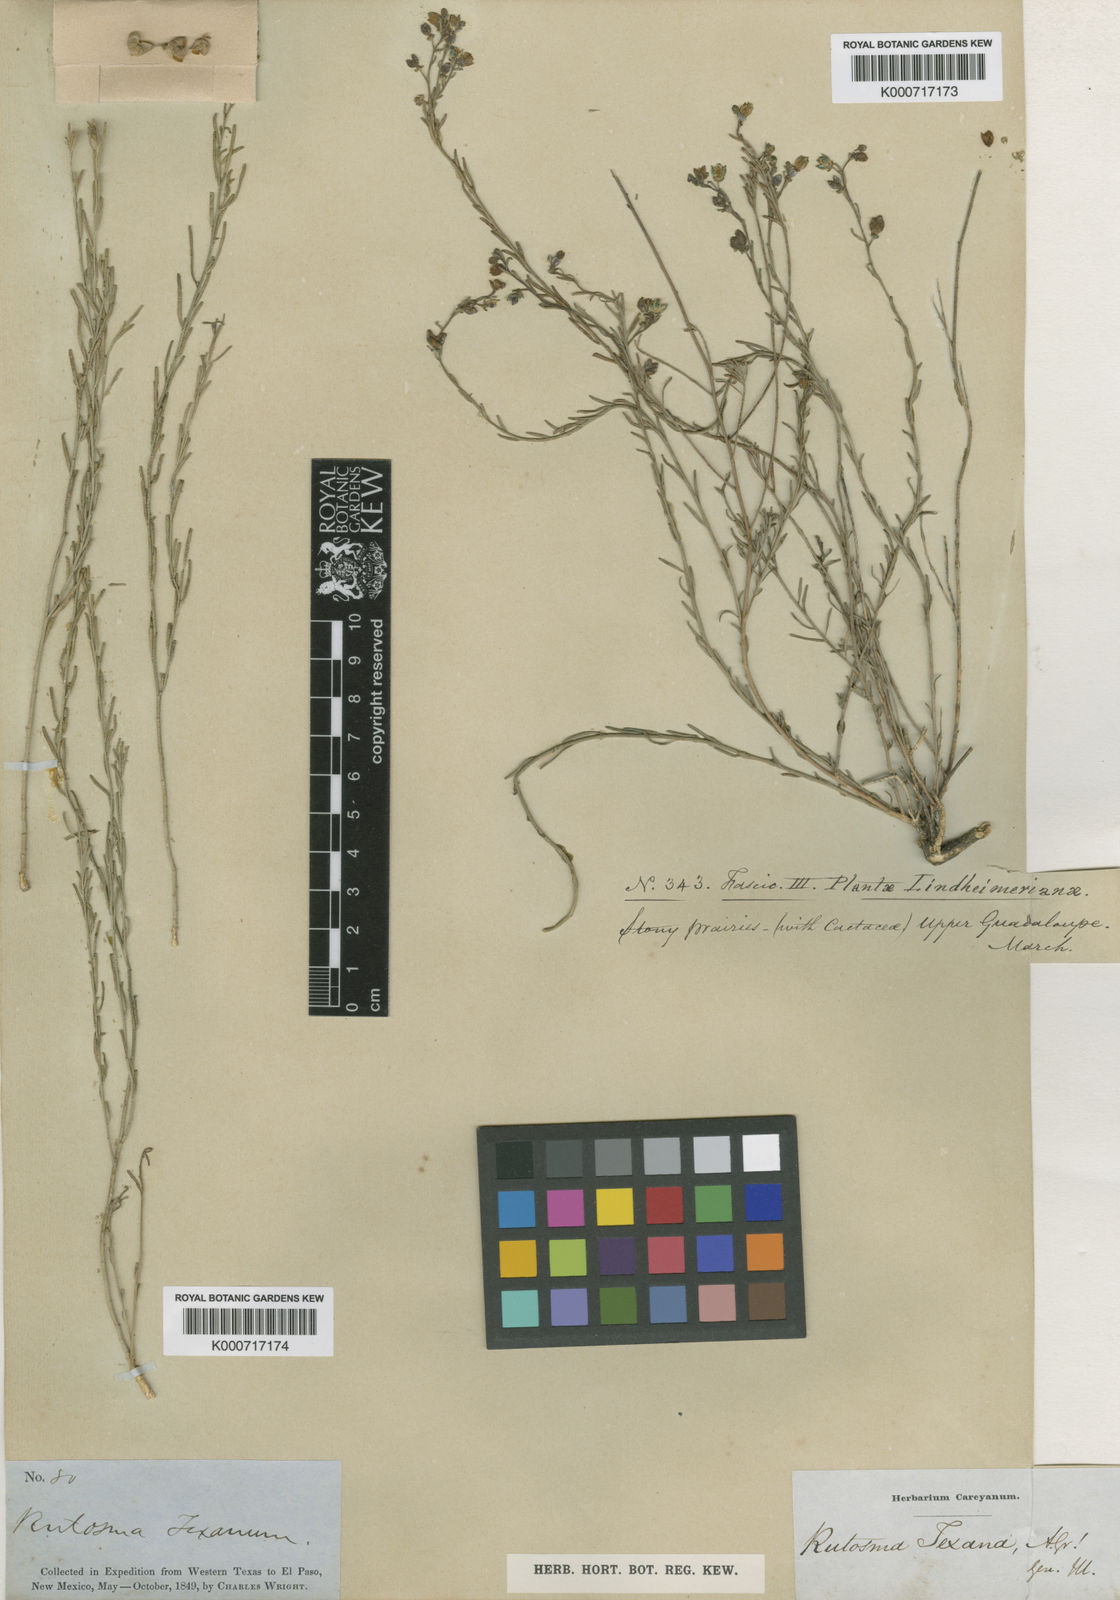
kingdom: Plantae
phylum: Tracheophyta
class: Magnoliopsida
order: Sapindales
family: Rutaceae
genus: Thamnosma
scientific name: Thamnosma texana
